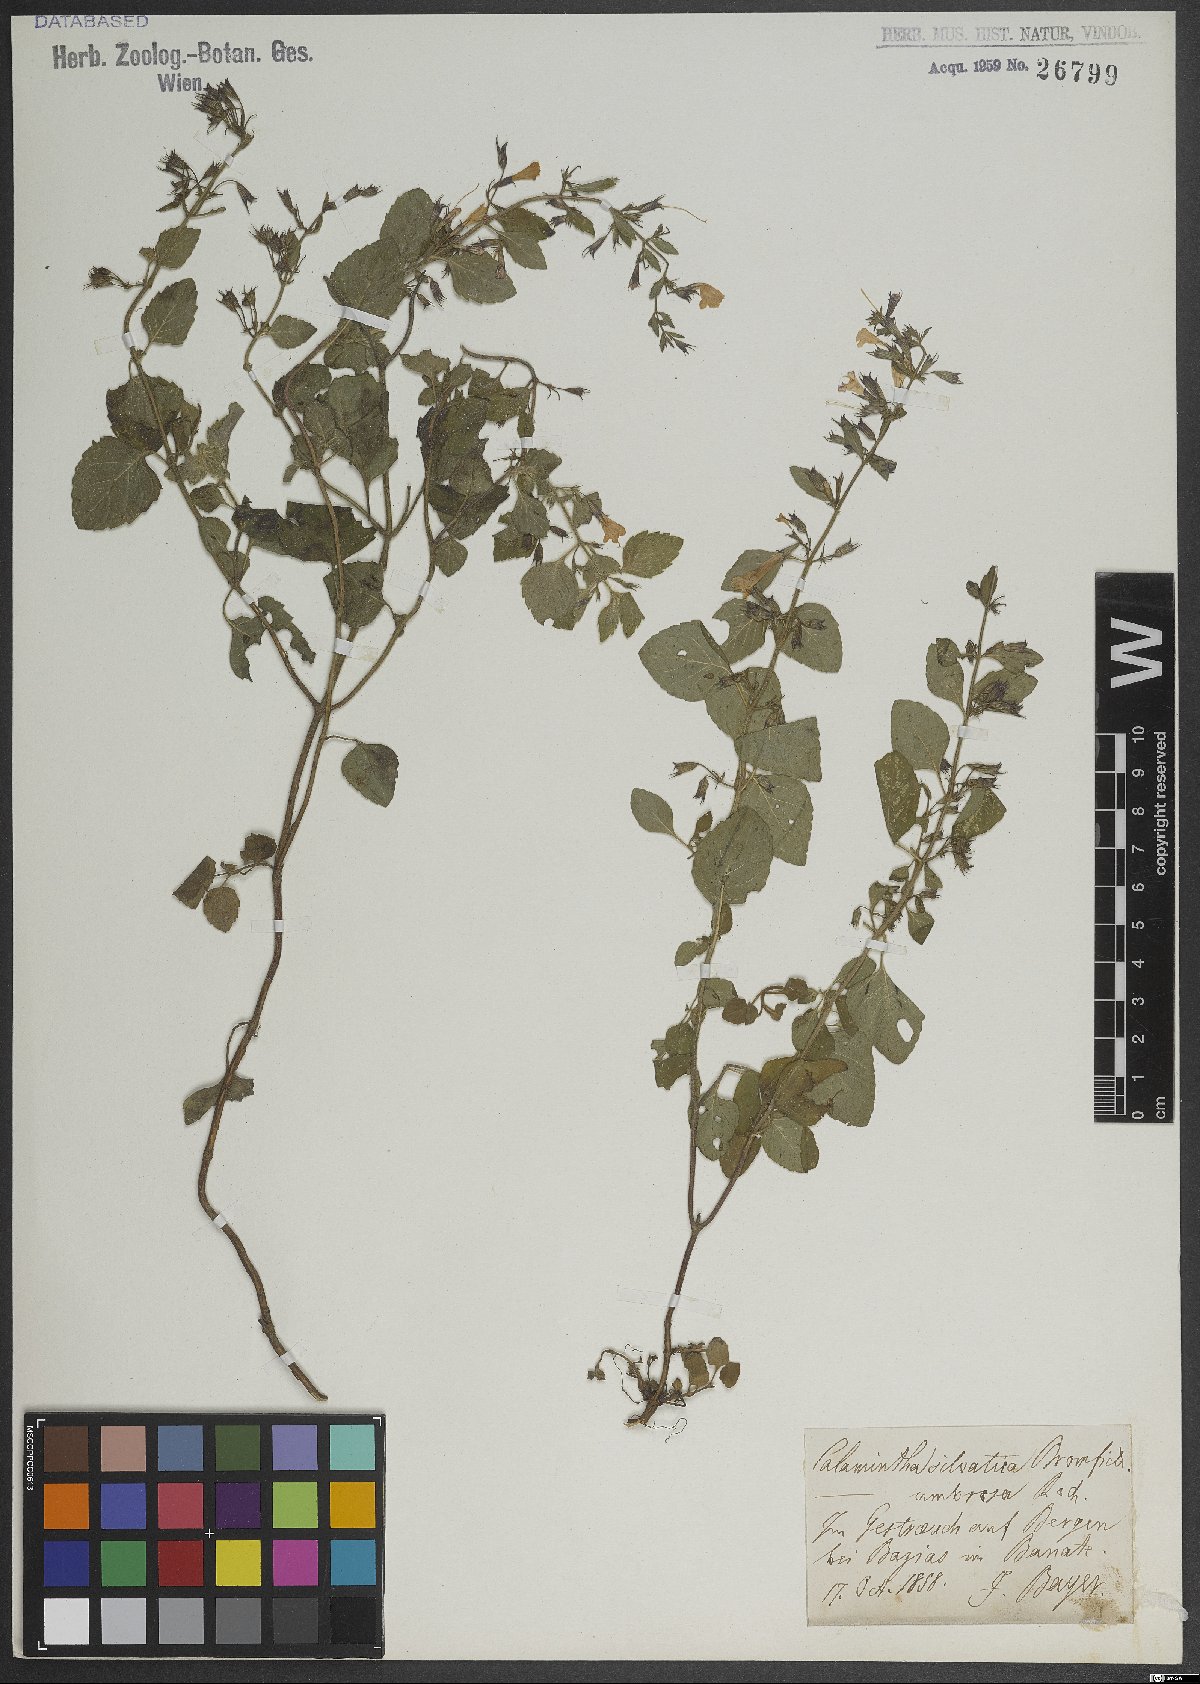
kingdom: Plantae
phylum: Tracheophyta
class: Magnoliopsida
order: Lamiales
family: Lamiaceae
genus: Clinopodium
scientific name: Clinopodium menthifolium
